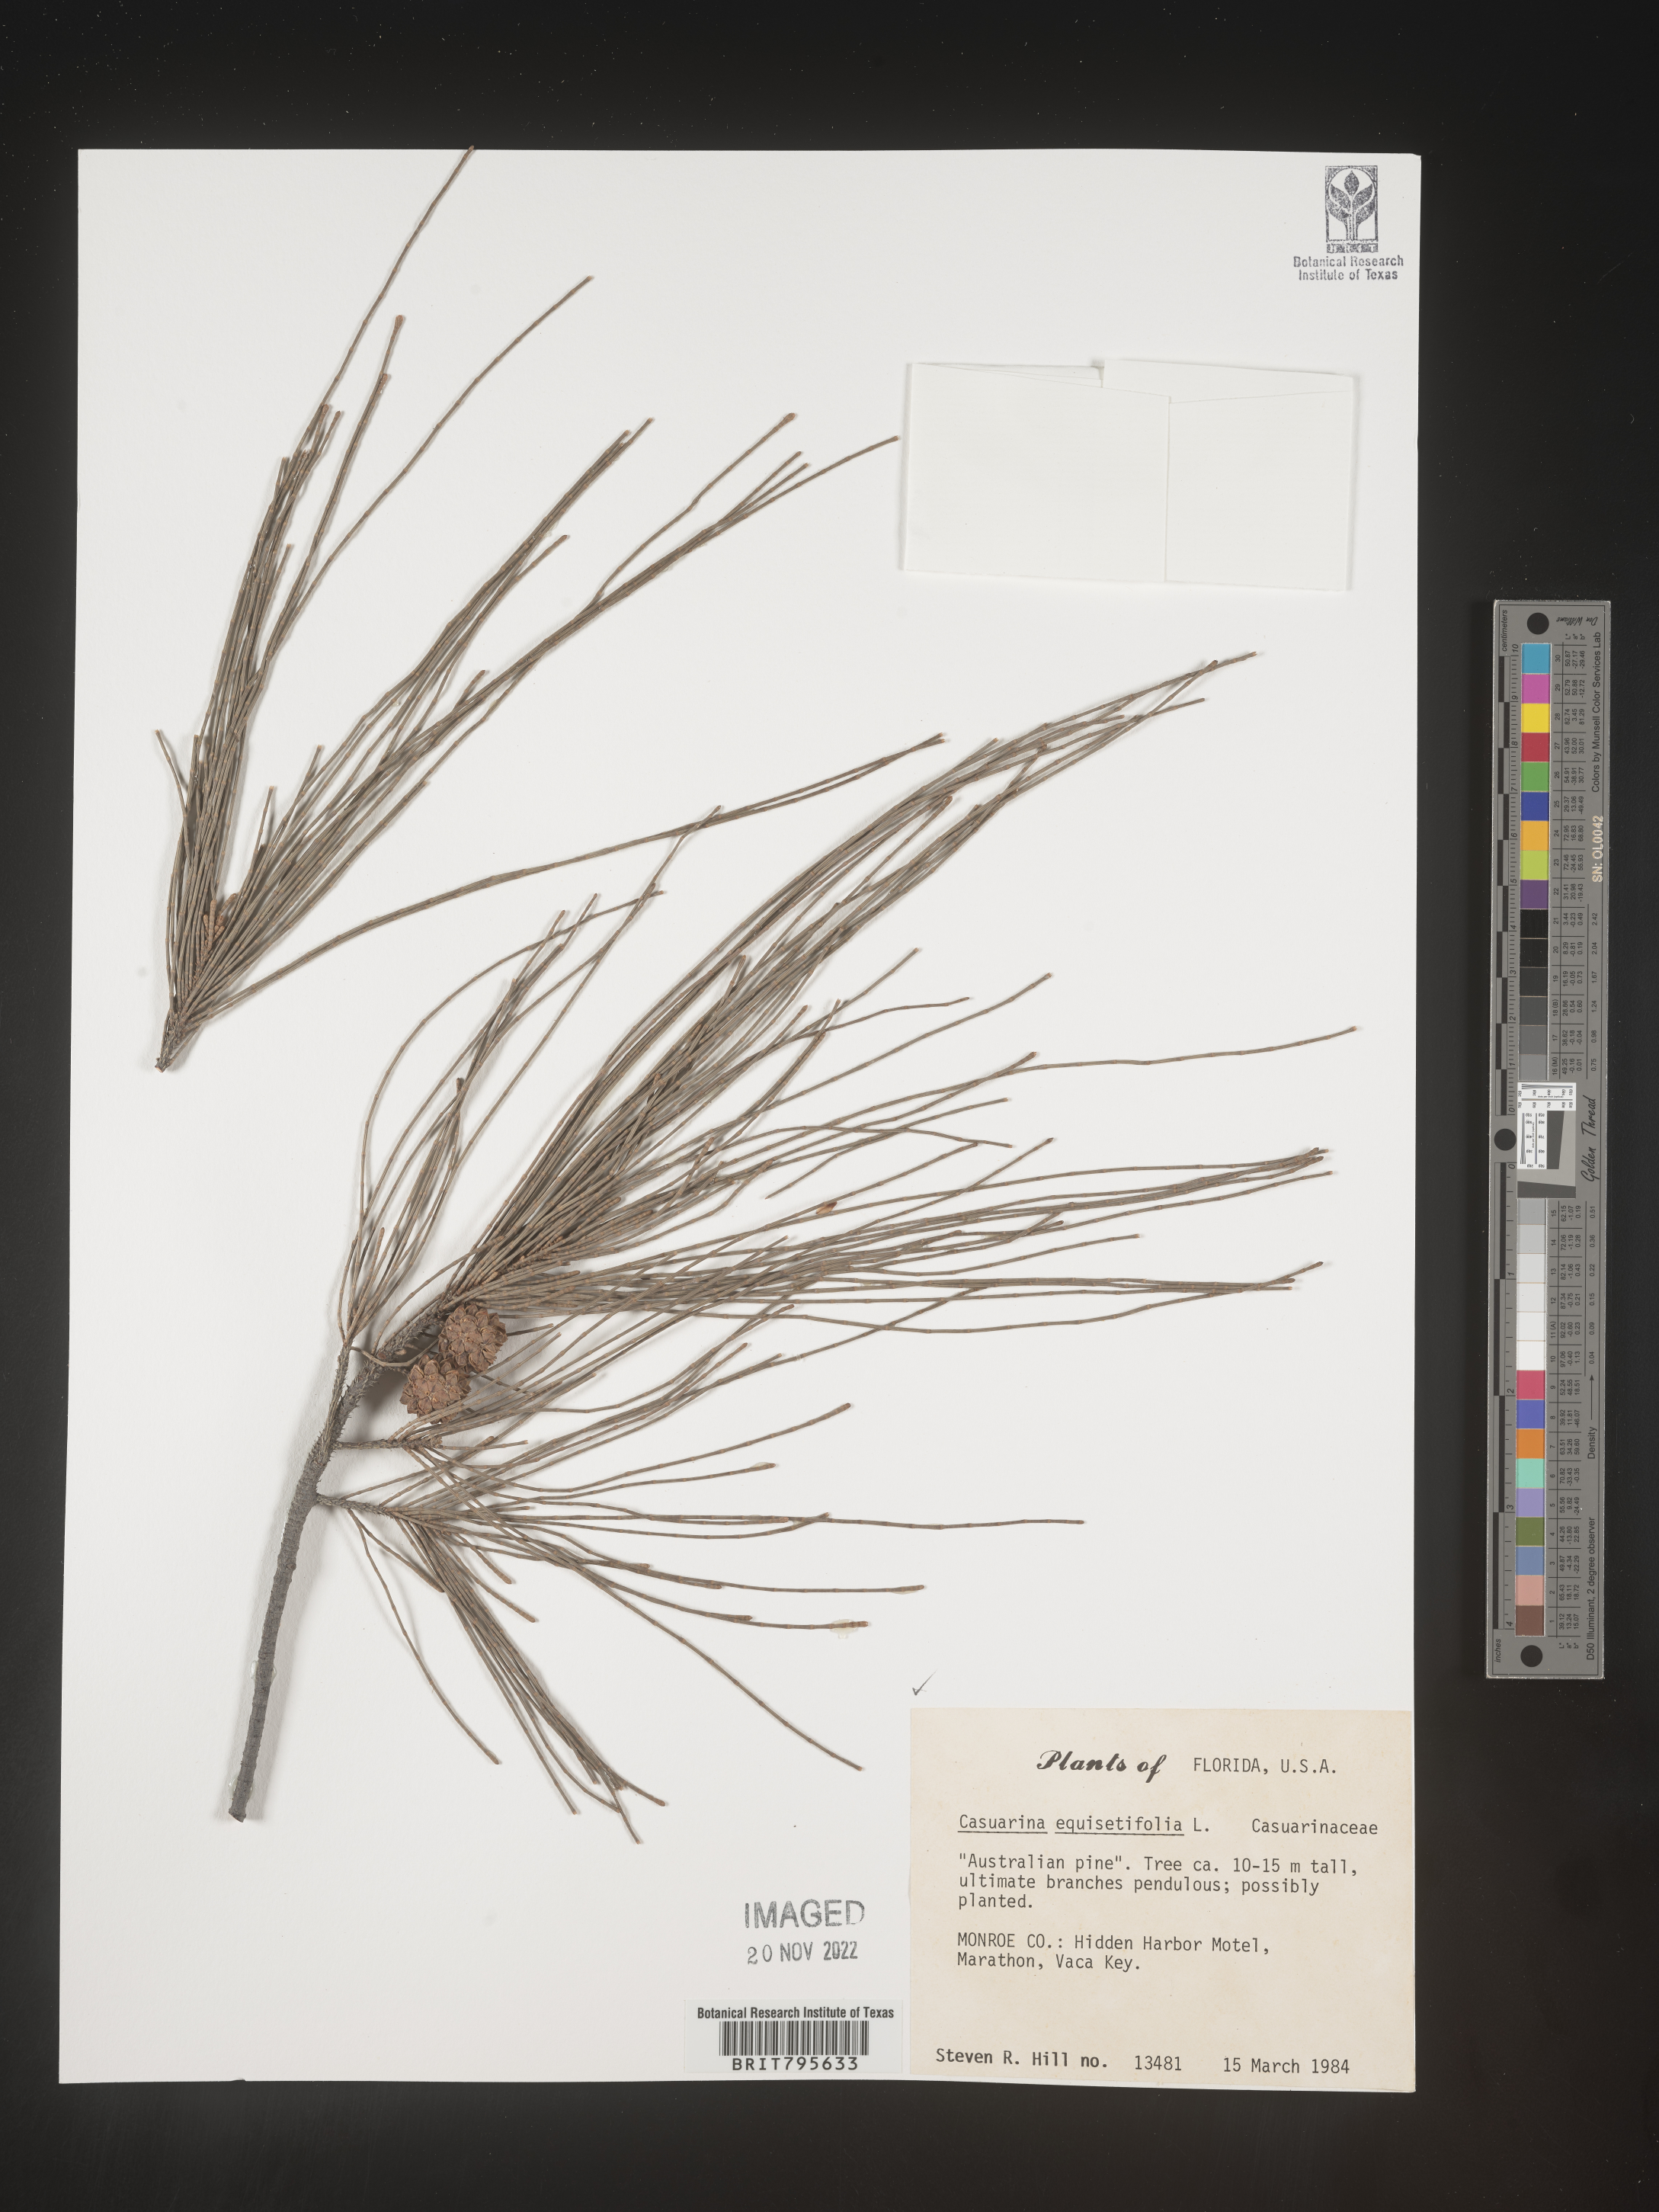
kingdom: Plantae
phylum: Tracheophyta
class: Magnoliopsida
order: Fagales
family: Casuarinaceae
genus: Casuarina
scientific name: Casuarina equisetifolia
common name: Beach sheoak
